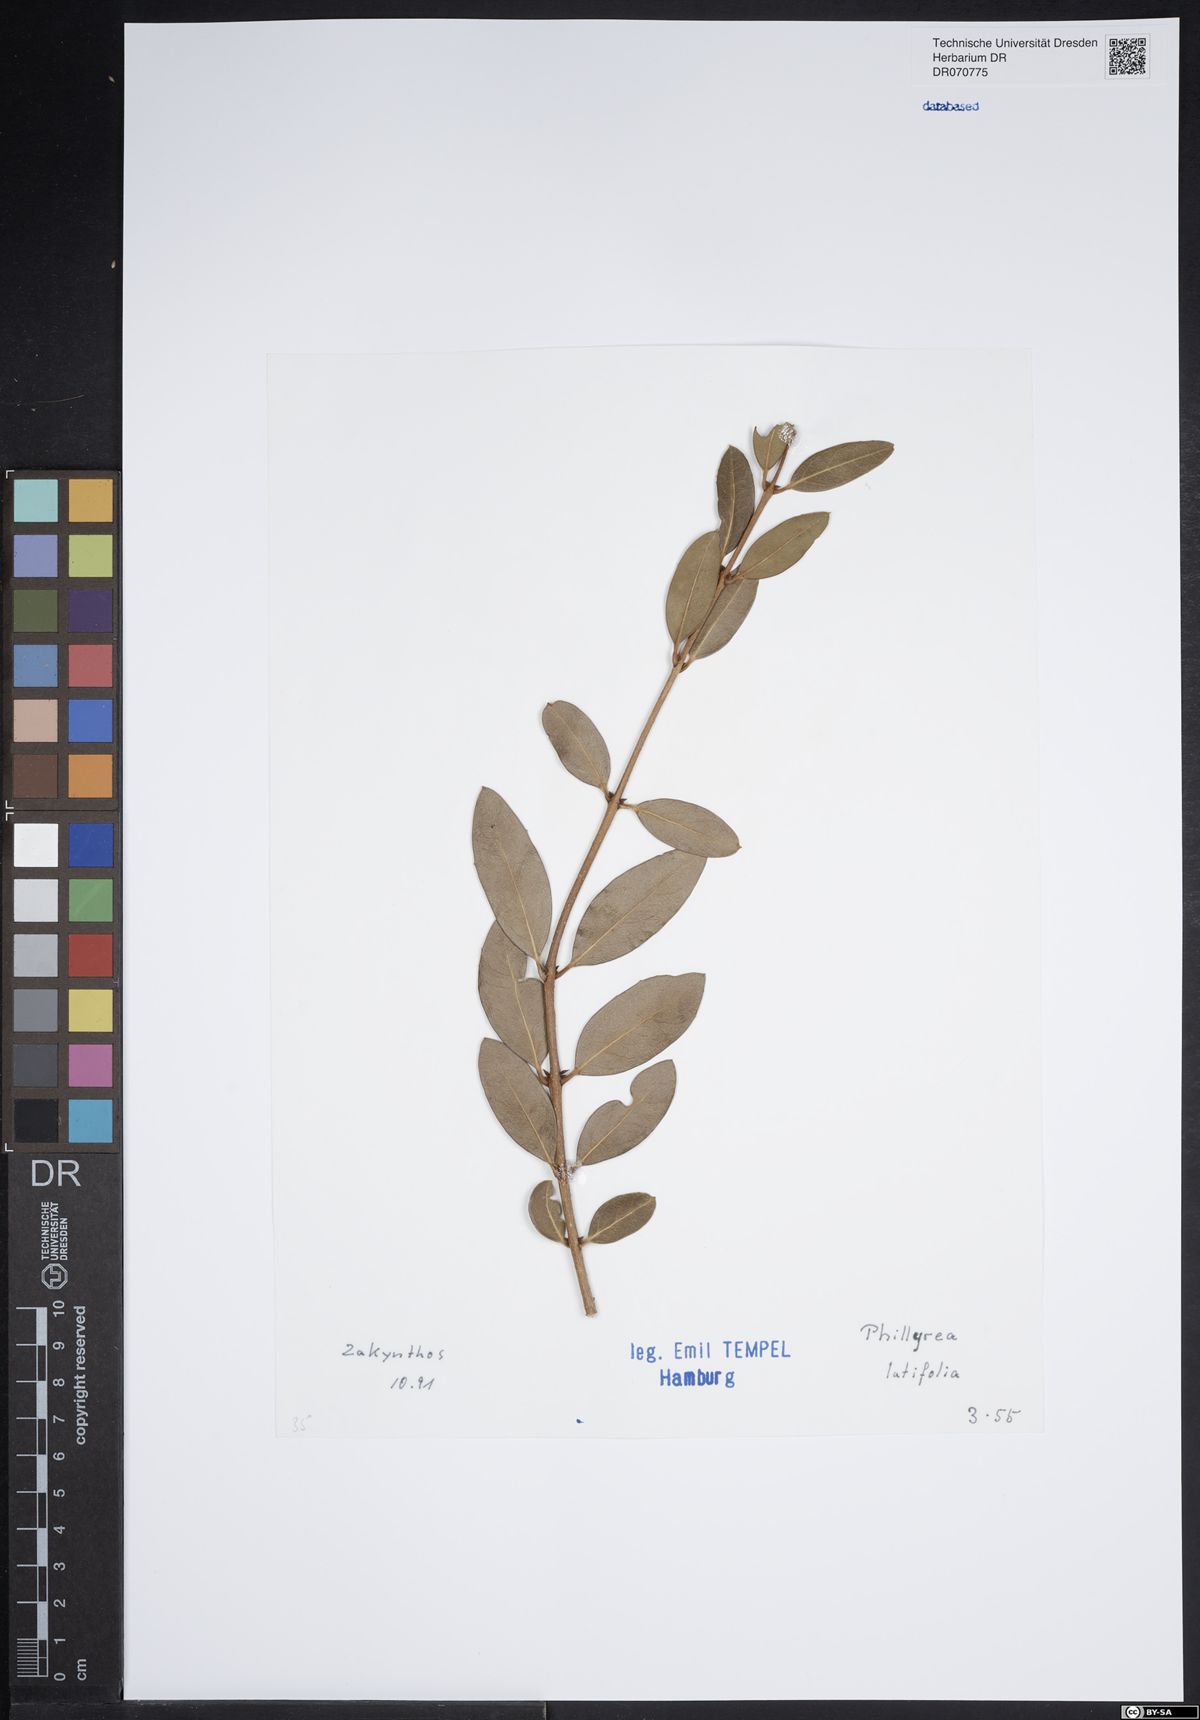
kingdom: Plantae
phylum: Tracheophyta
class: Magnoliopsida
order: Lamiales
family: Oleaceae
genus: Phillyrea
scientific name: Phillyrea latifolia
